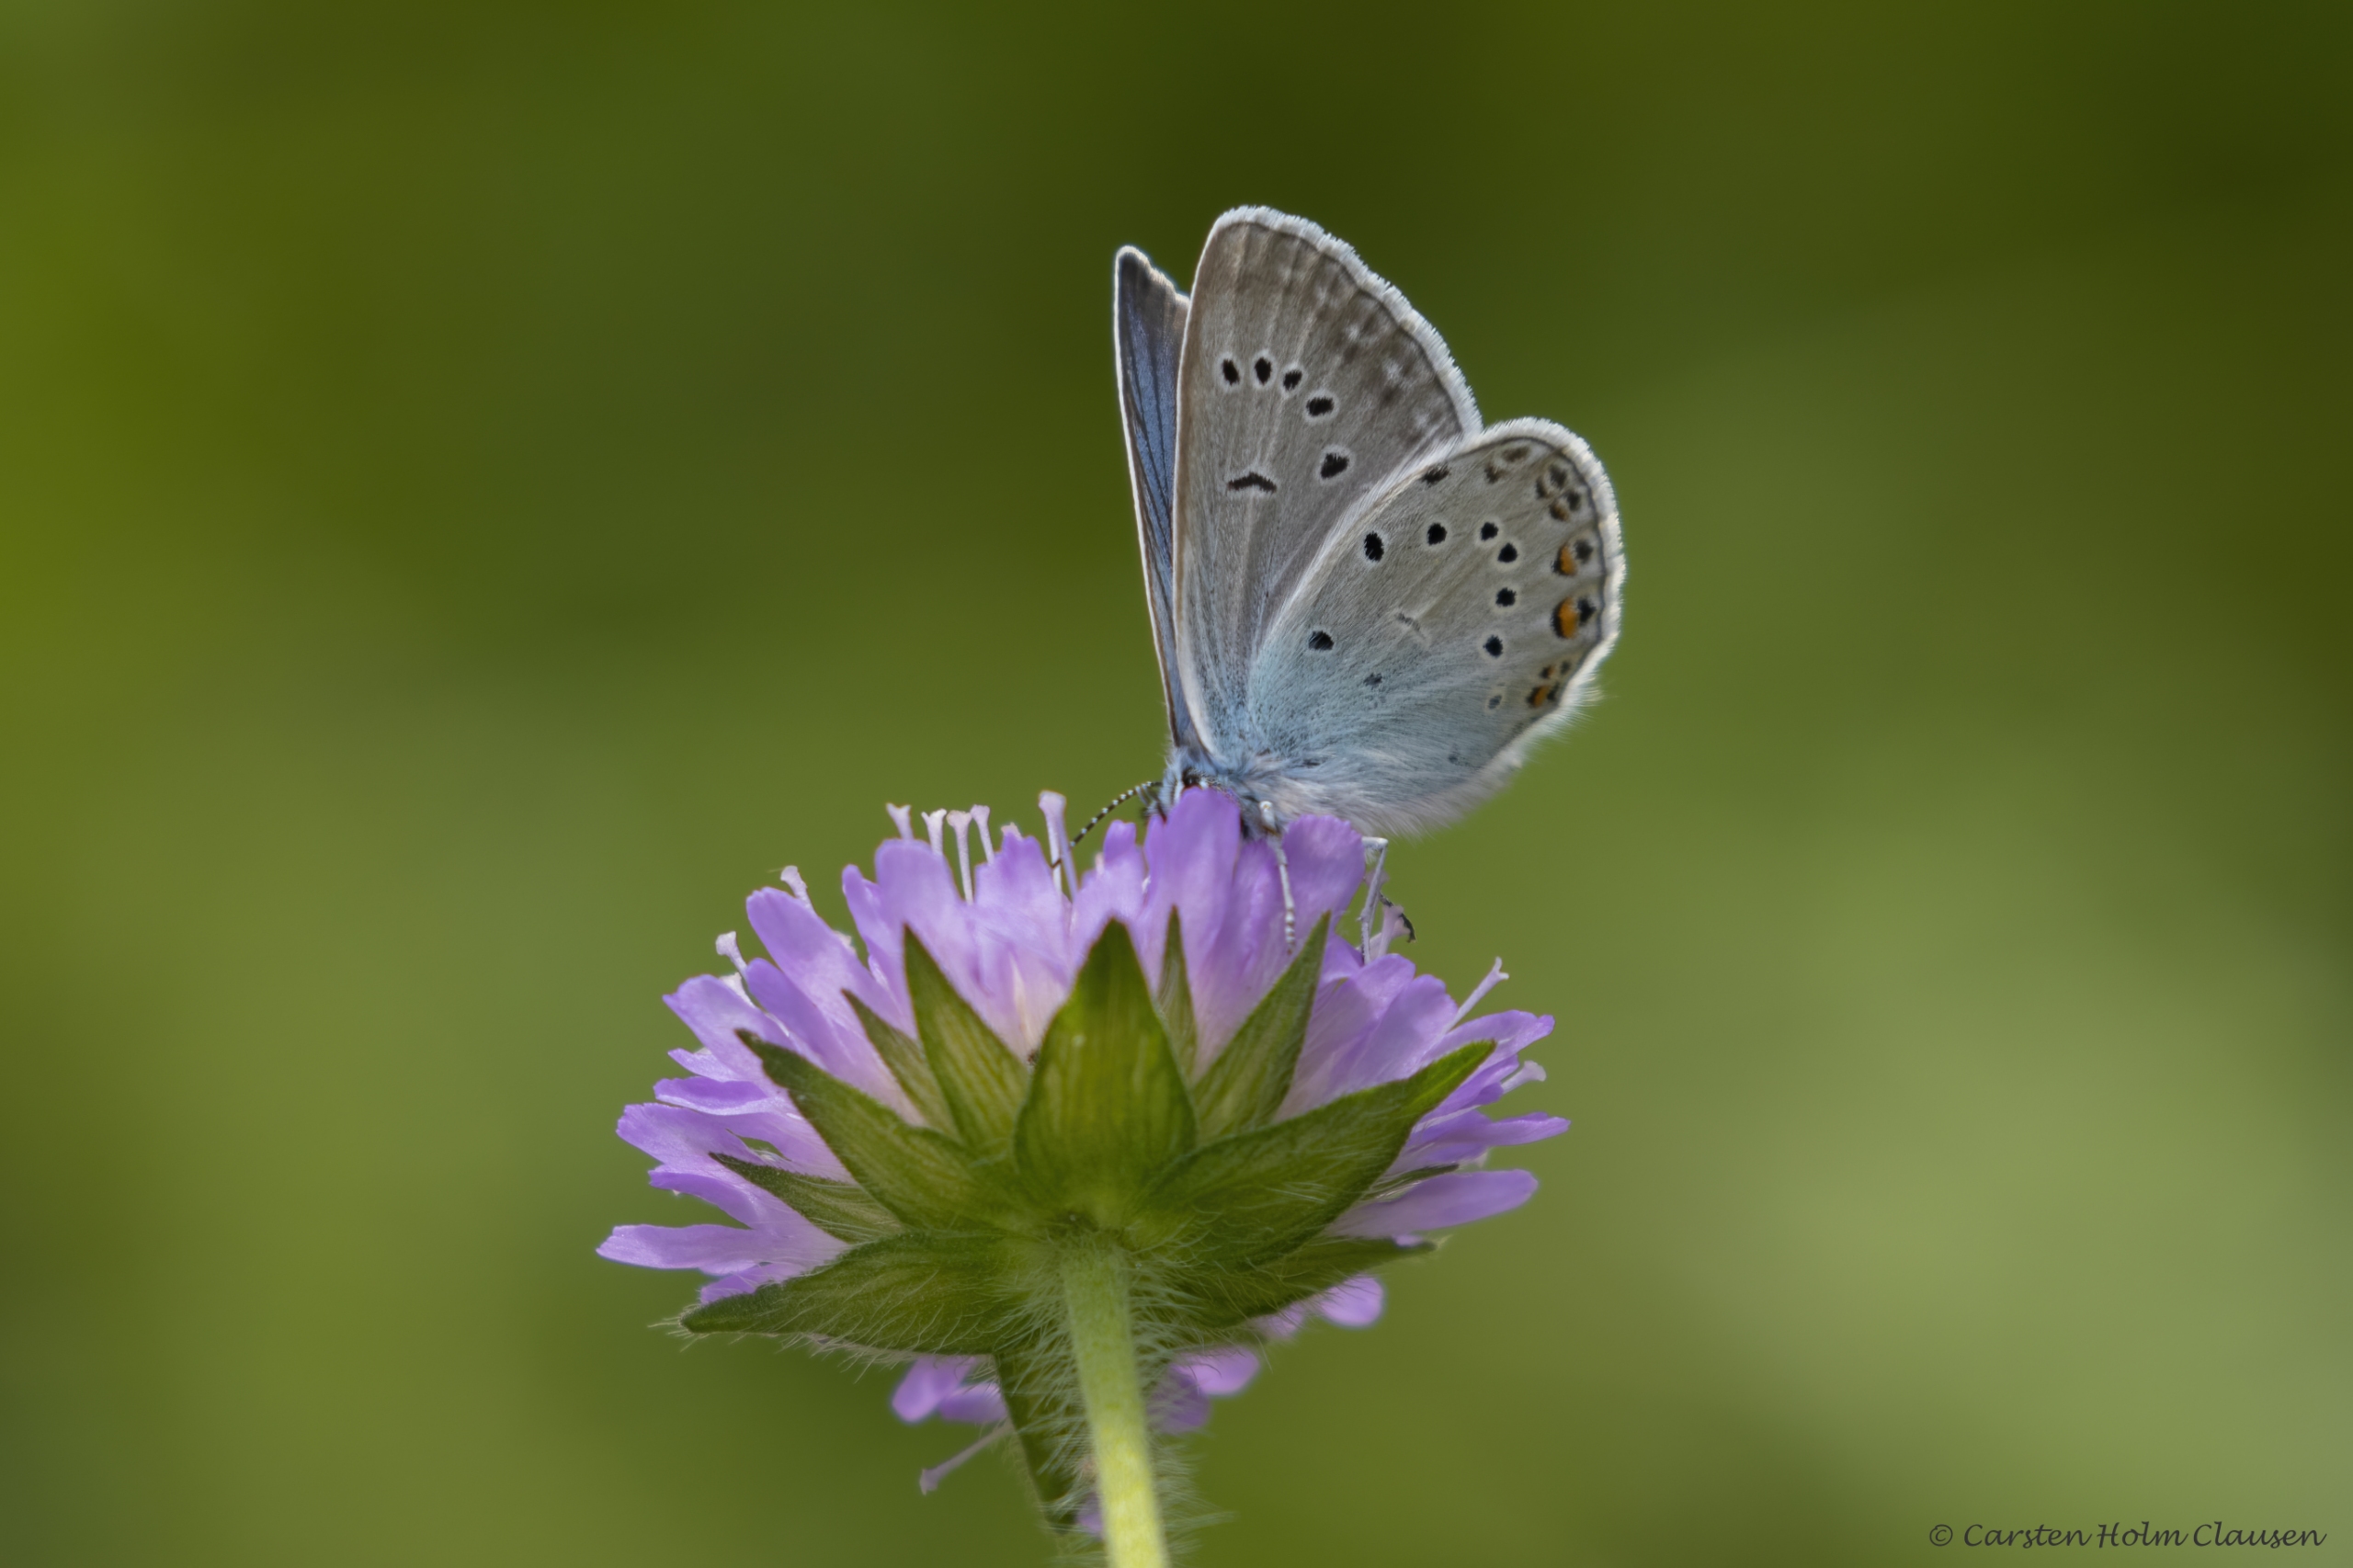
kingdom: Animalia
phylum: Arthropoda
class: Insecta
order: Lepidoptera
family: Lycaenidae
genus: Plebejus
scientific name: Plebejus amanda
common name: Isblåfugl
